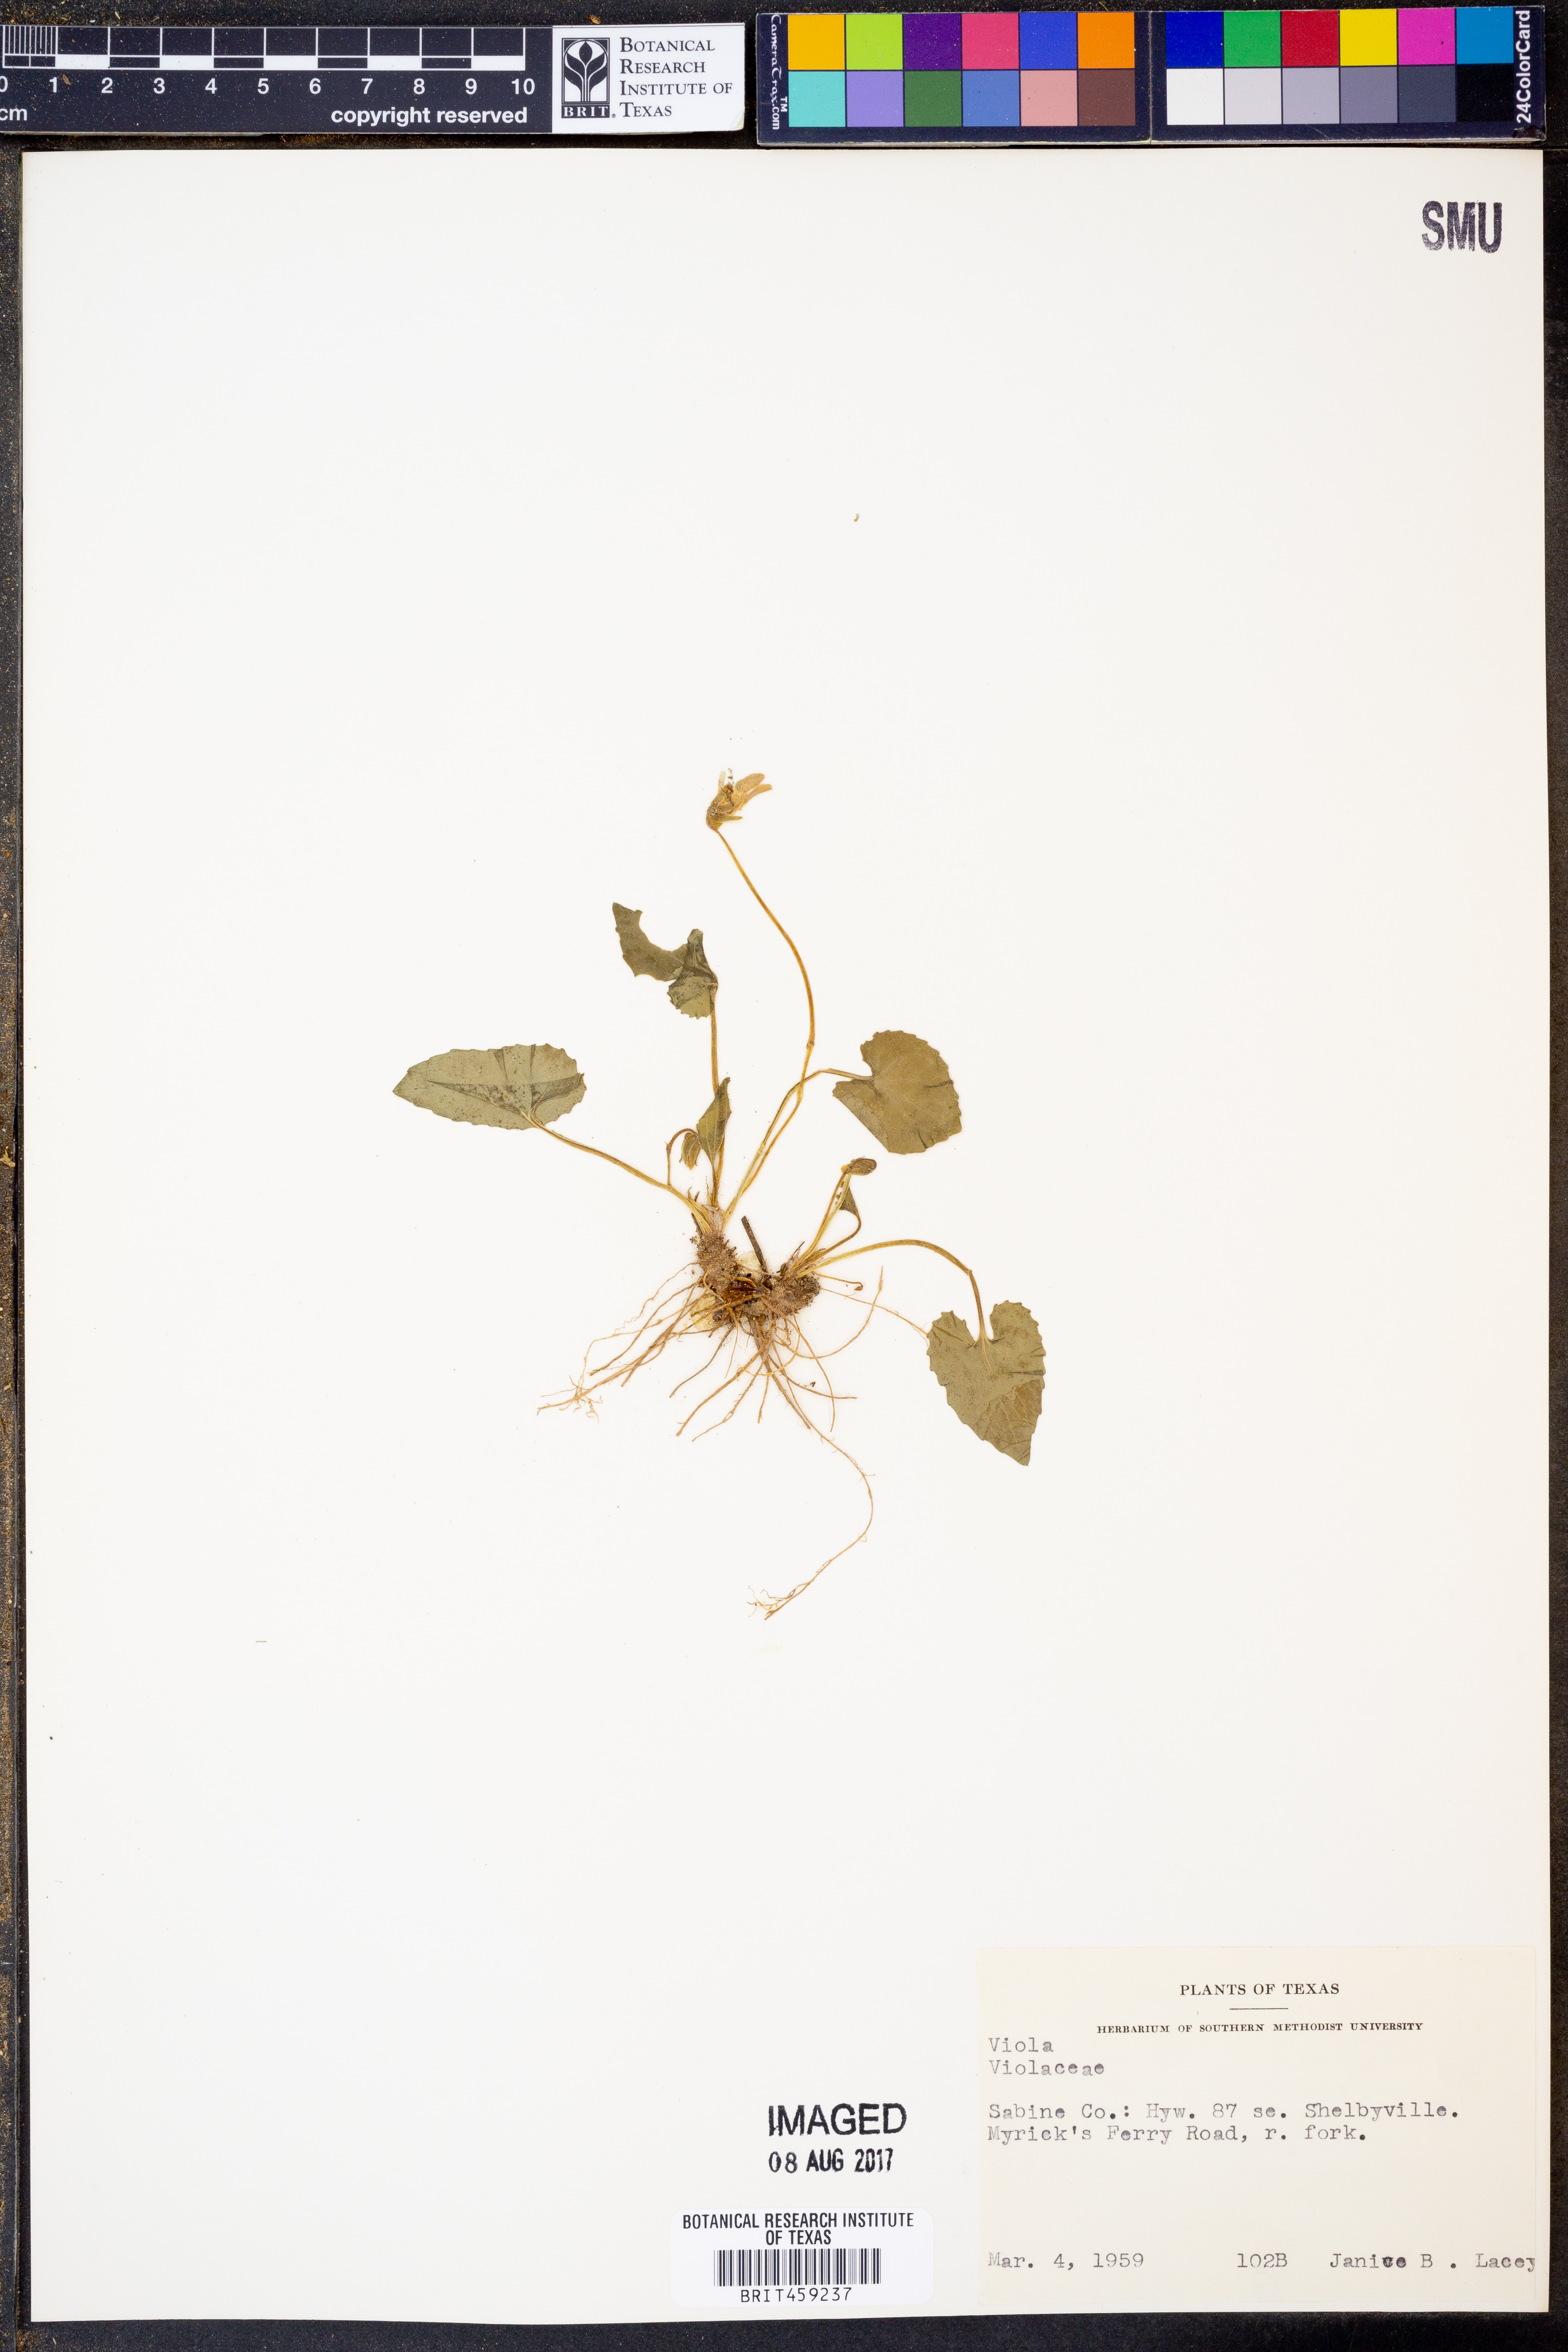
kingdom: Plantae
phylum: Tracheophyta
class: Magnoliopsida
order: Malpighiales
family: Violaceae
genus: Viola
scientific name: Viola
